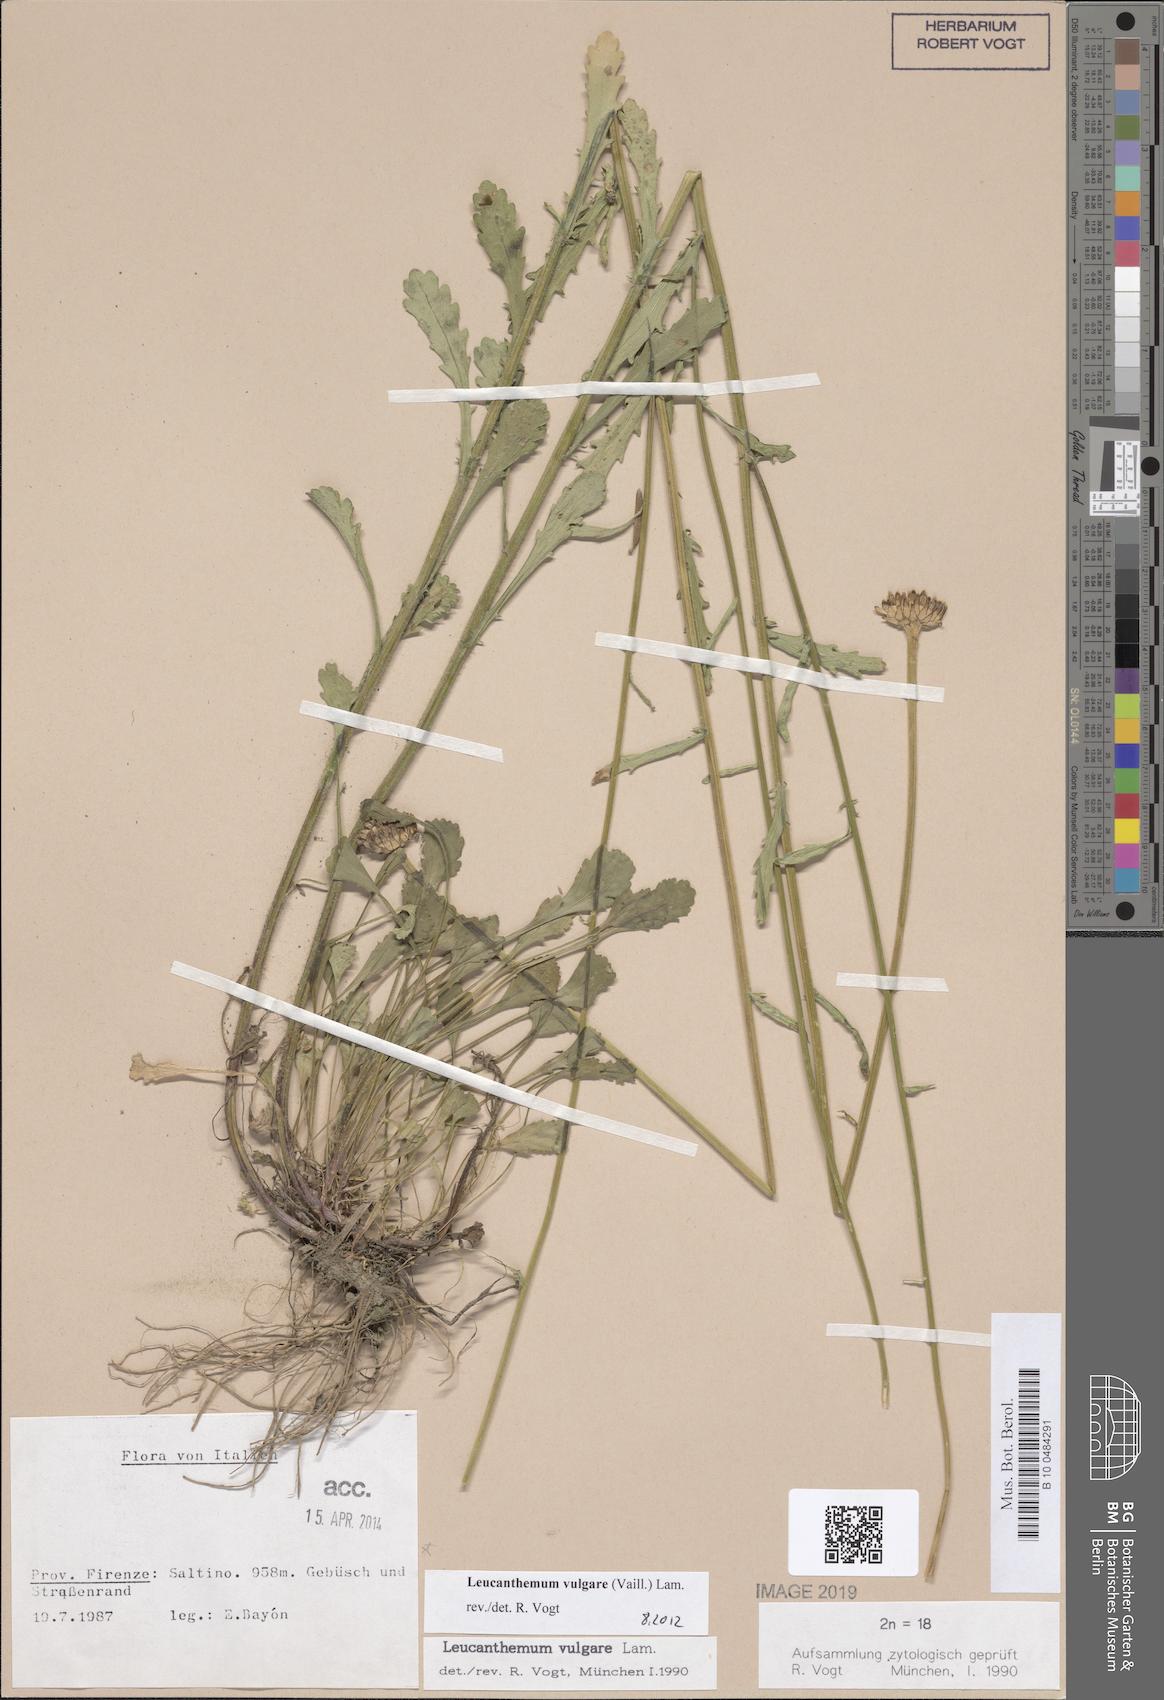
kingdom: Plantae
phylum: Tracheophyta
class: Magnoliopsida
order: Asterales
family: Asteraceae
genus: Leucanthemum
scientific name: Leucanthemum vulgare
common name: Oxeye daisy
